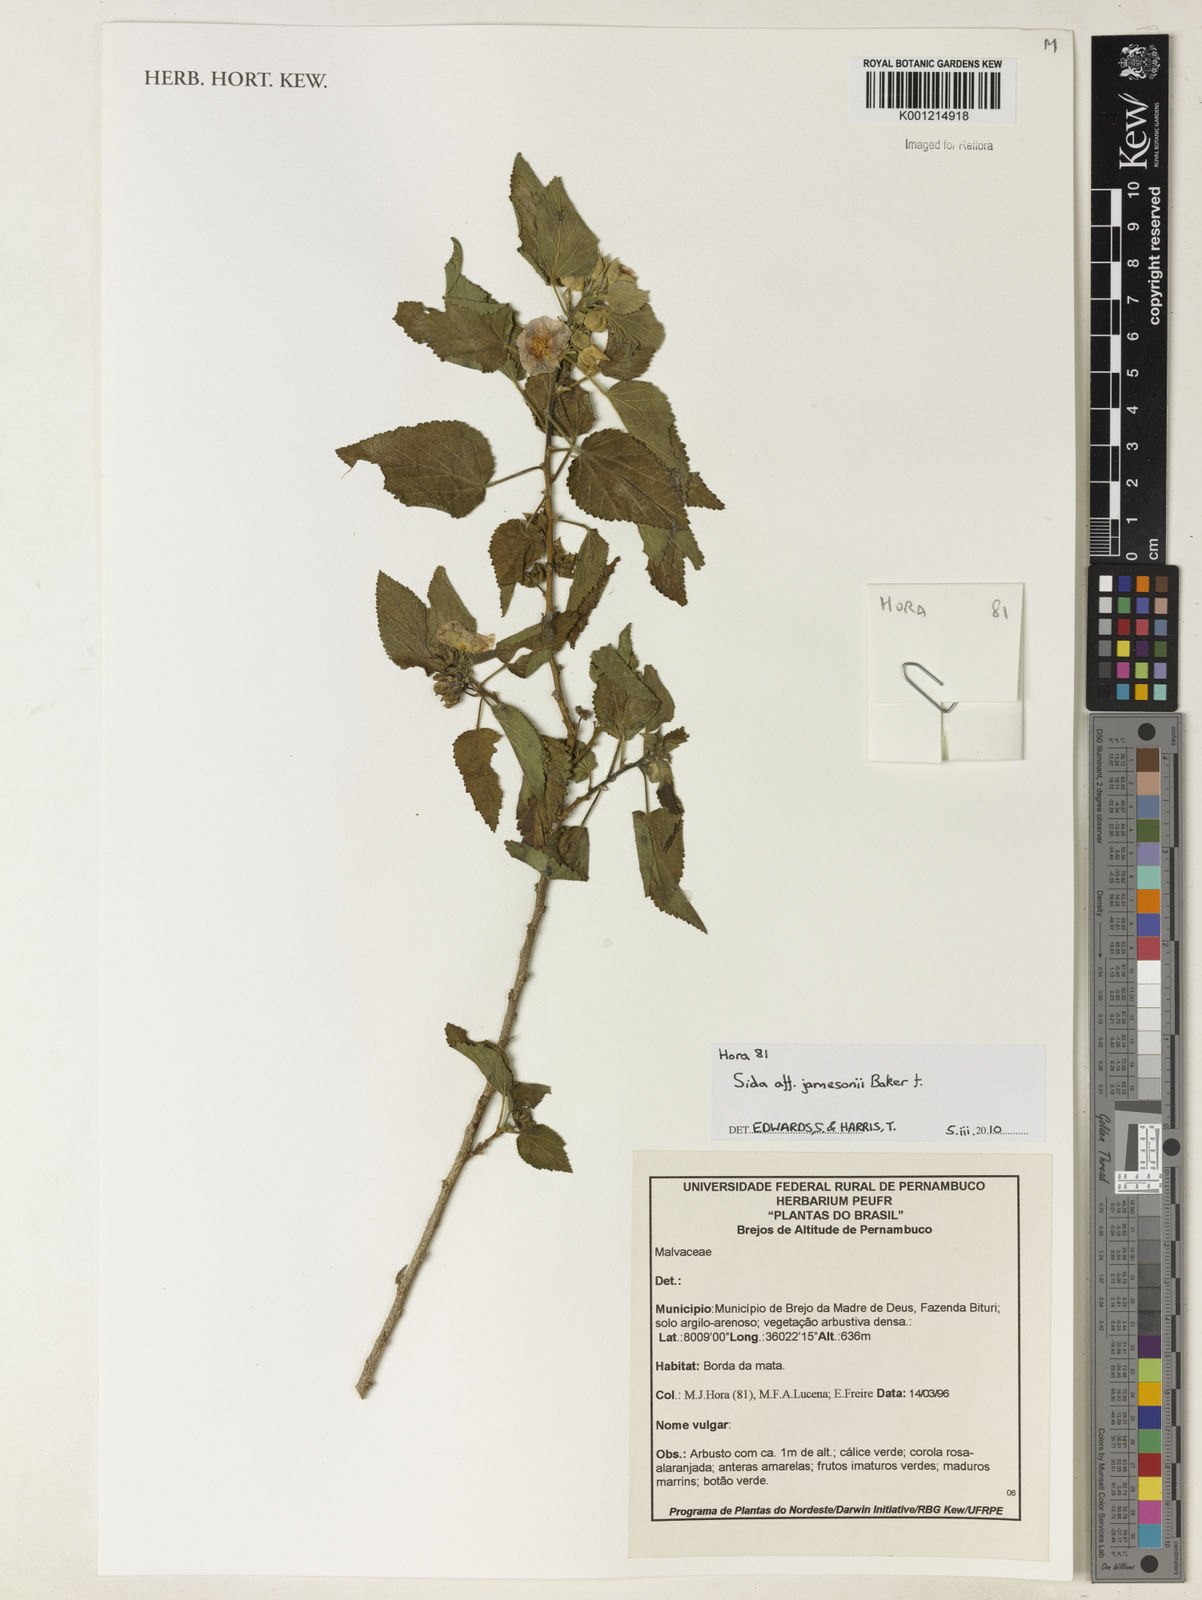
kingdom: Plantae
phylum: Tracheophyta
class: Magnoliopsida
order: Malvales
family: Malvaceae
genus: Sidasodes
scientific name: Sidasodes jamesonii
